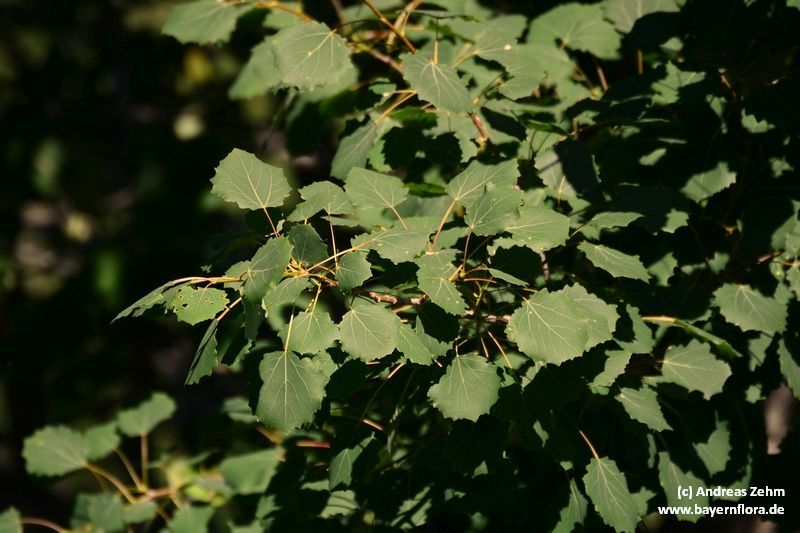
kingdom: Plantae
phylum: Tracheophyta
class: Magnoliopsida
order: Malpighiales
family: Salicaceae
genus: Populus
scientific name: Populus tremula
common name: European aspen
